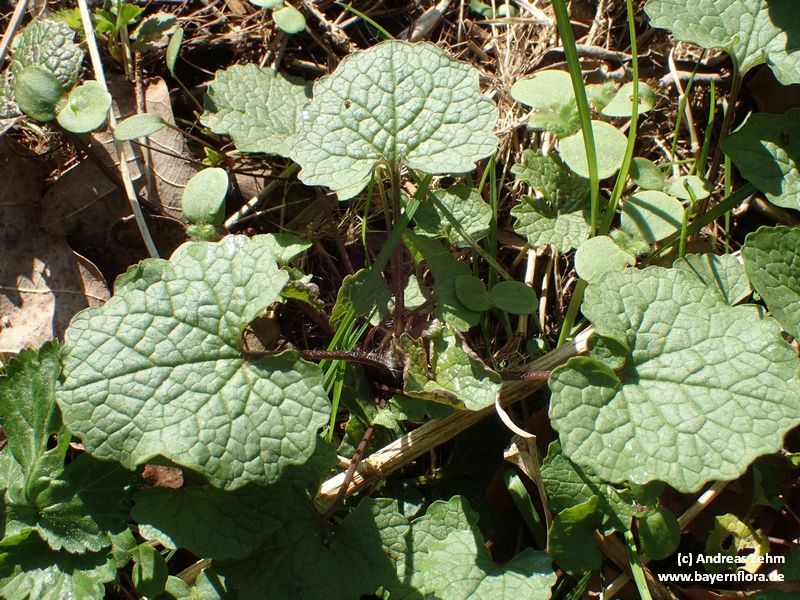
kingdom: Plantae
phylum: Tracheophyta
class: Magnoliopsida
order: Brassicales
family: Brassicaceae
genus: Alliaria
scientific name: Alliaria petiolata
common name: Garlic mustard
